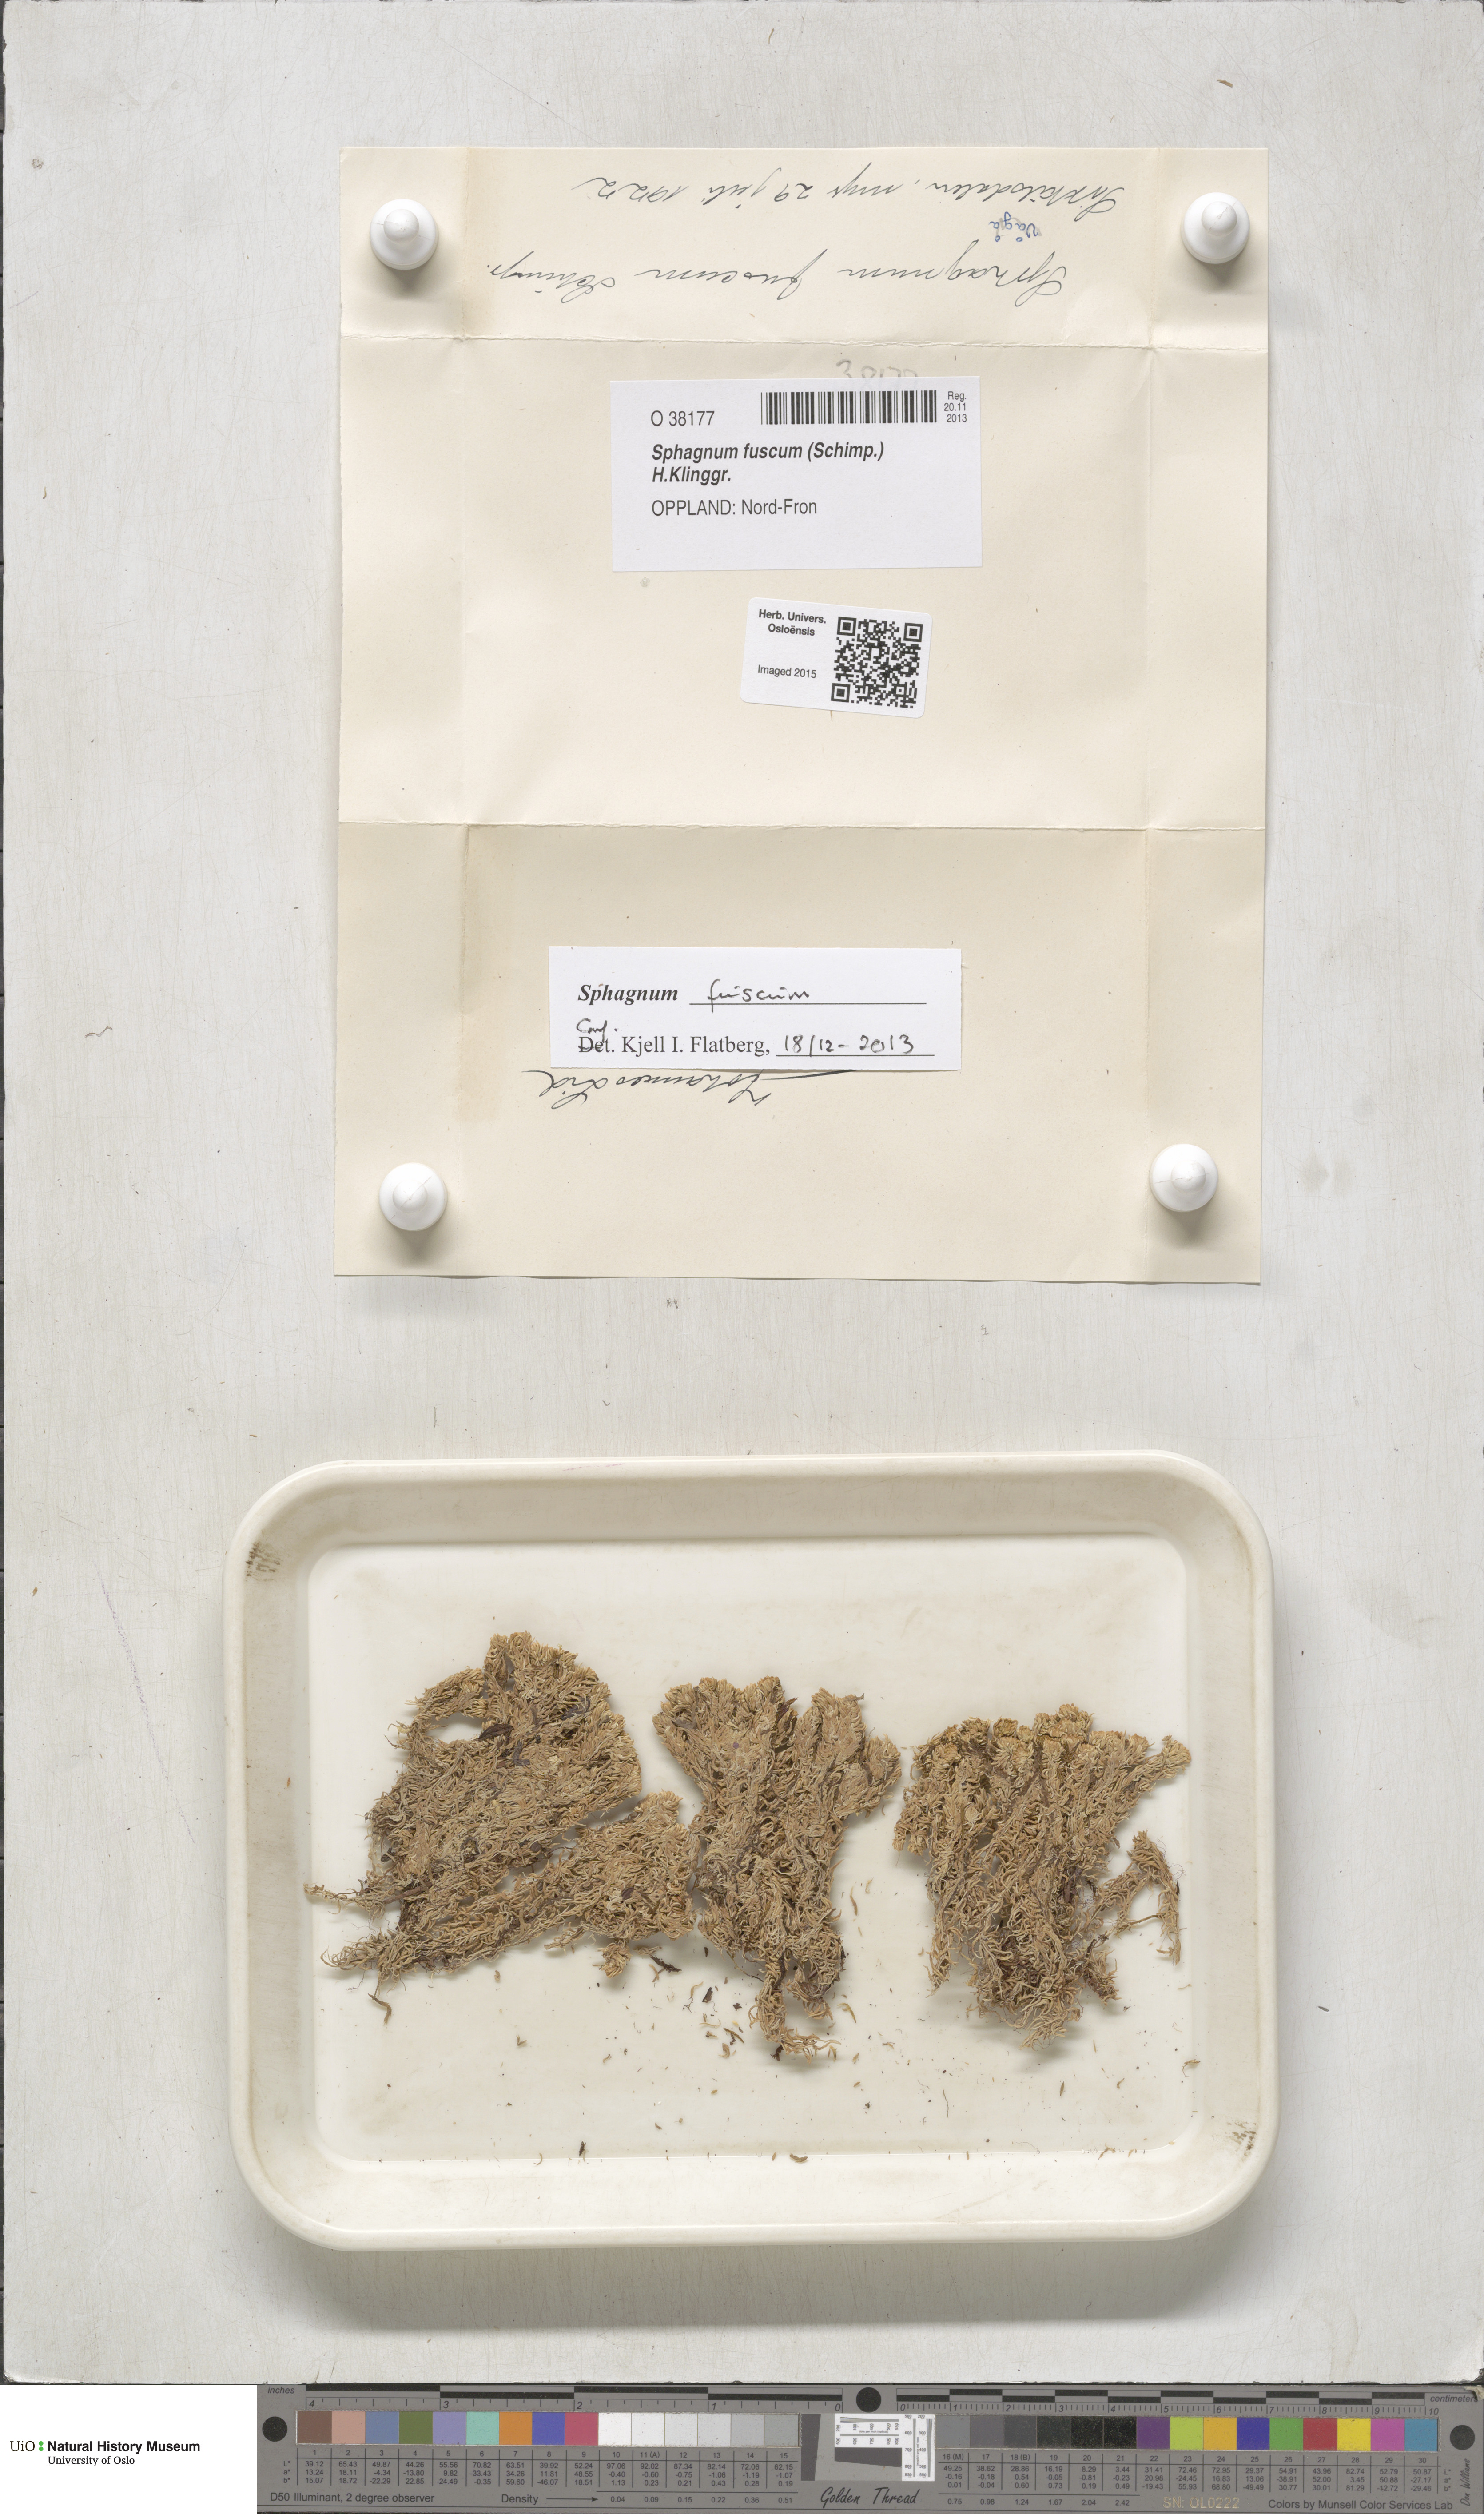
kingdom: Plantae
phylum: Bryophyta
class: Sphagnopsida
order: Sphagnales
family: Sphagnaceae
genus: Sphagnum
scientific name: Sphagnum fuscum
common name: Brown peat moss
